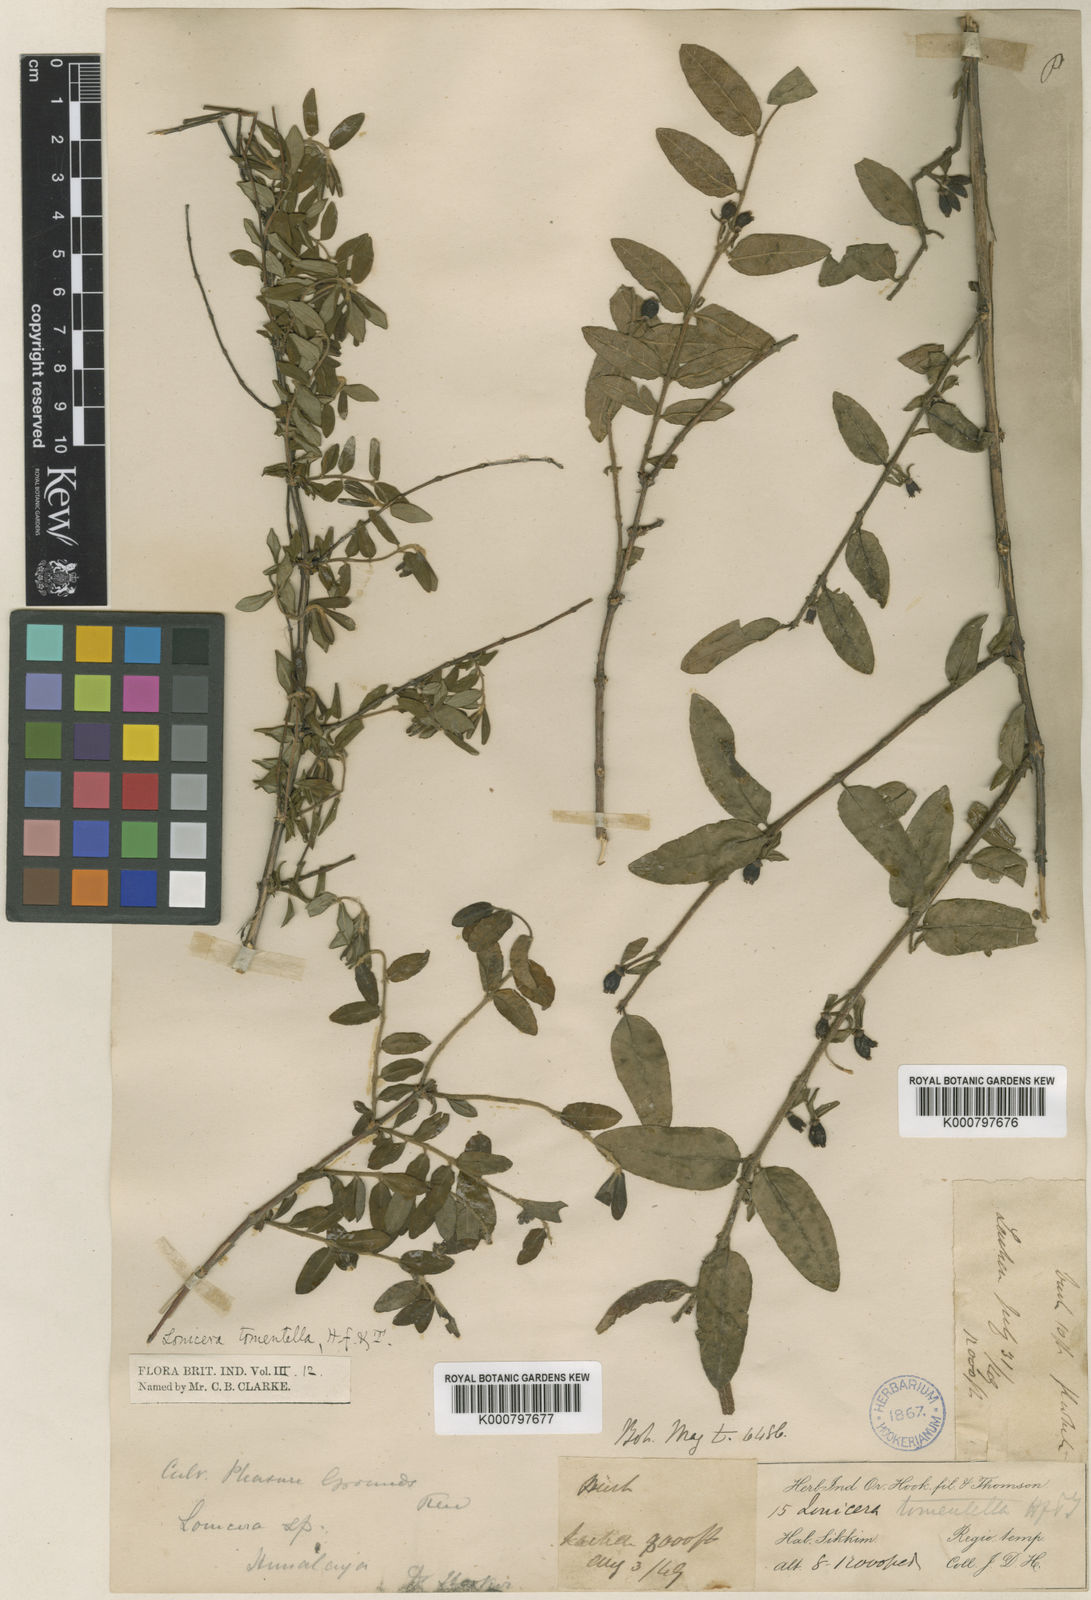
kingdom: Plantae
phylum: Tracheophyta
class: Magnoliopsida
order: Dipsacales
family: Caprifoliaceae
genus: Lonicera
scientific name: Lonicera tomentella
